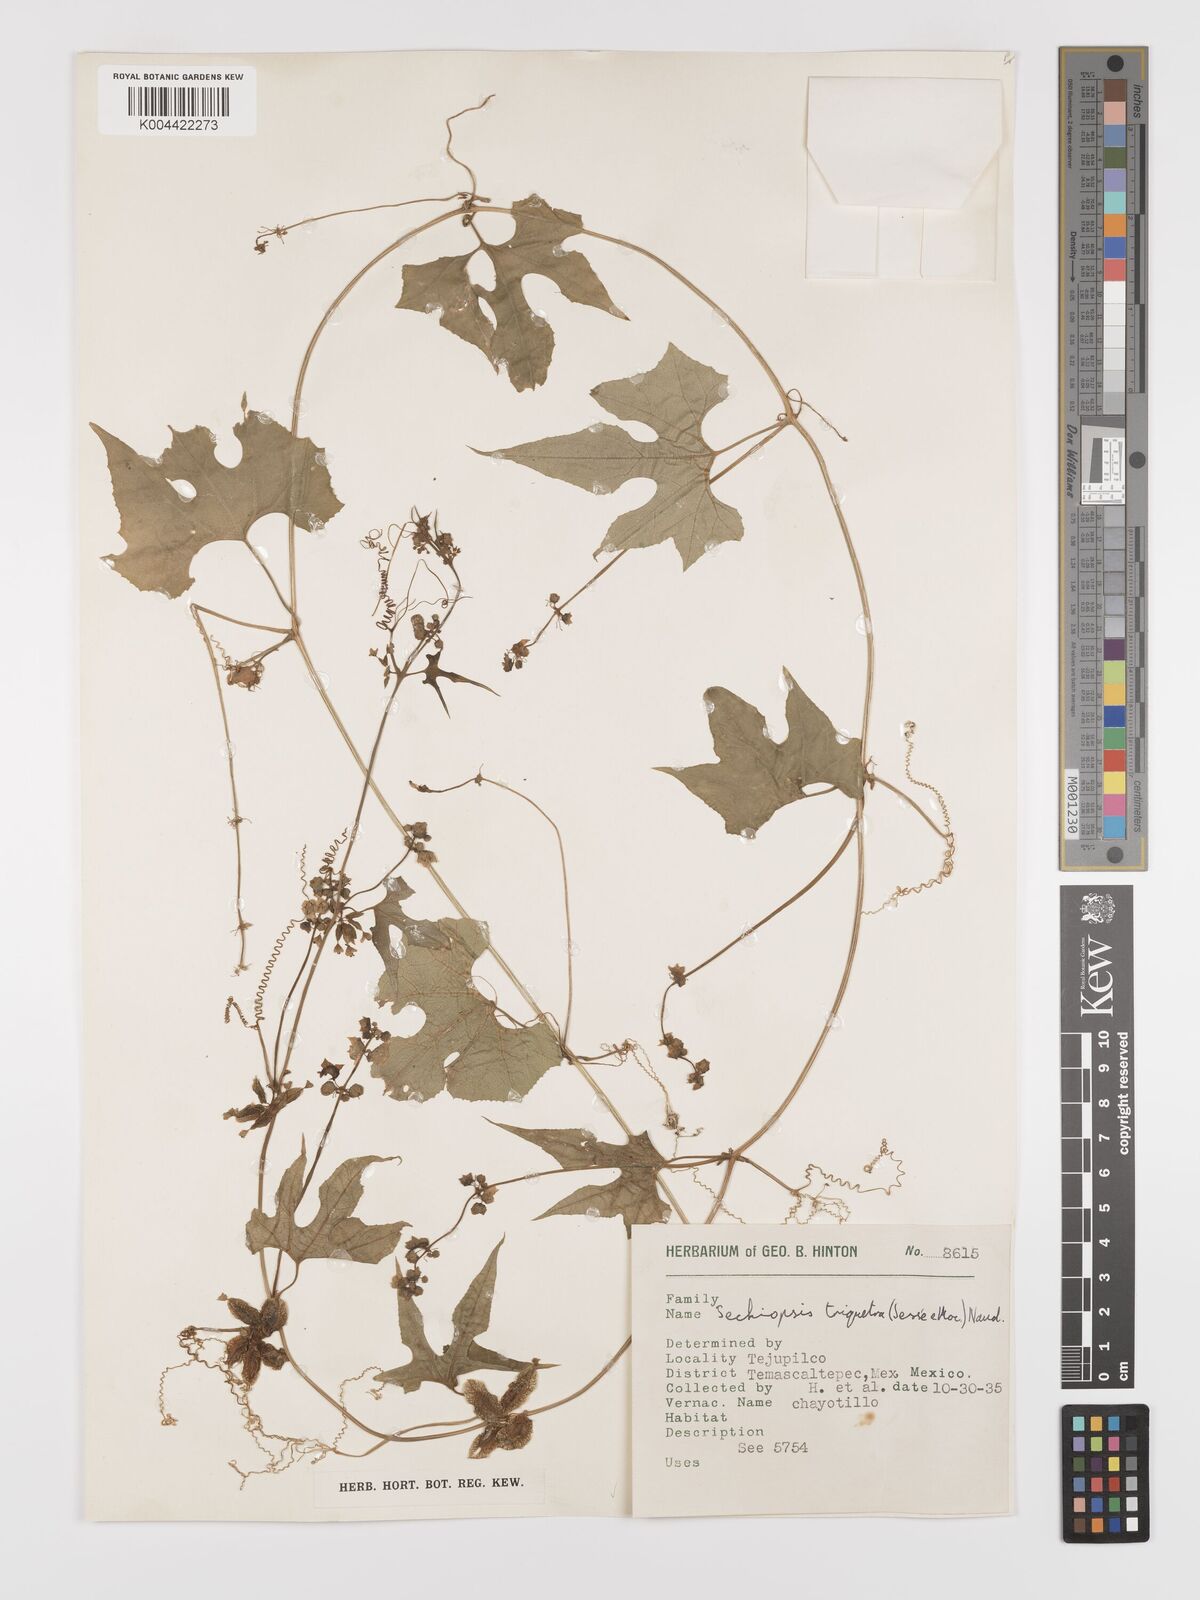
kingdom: Plantae
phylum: Tracheophyta
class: Magnoliopsida
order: Cucurbitales
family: Cucurbitaceae
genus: Sechiopsis
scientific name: Sechiopsis triqueter
